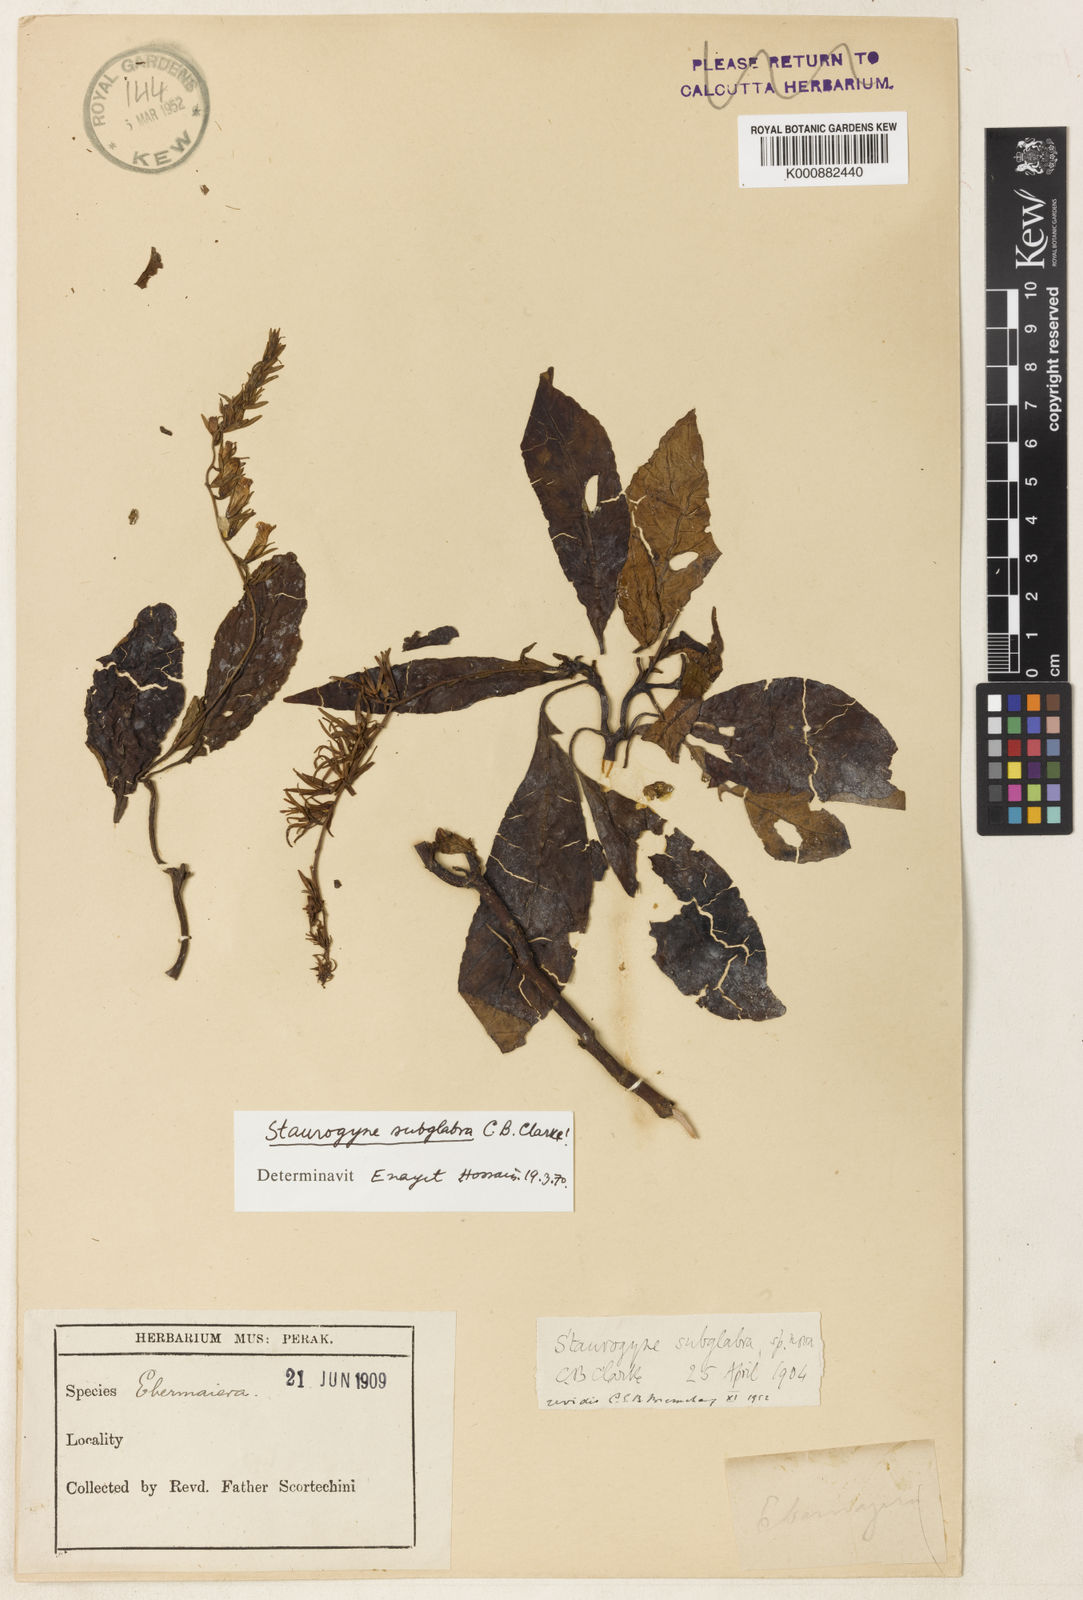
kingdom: Plantae
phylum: Tracheophyta
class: Magnoliopsida
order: Lamiales
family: Acanthaceae
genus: Staurogyne
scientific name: Staurogyne subglabra
